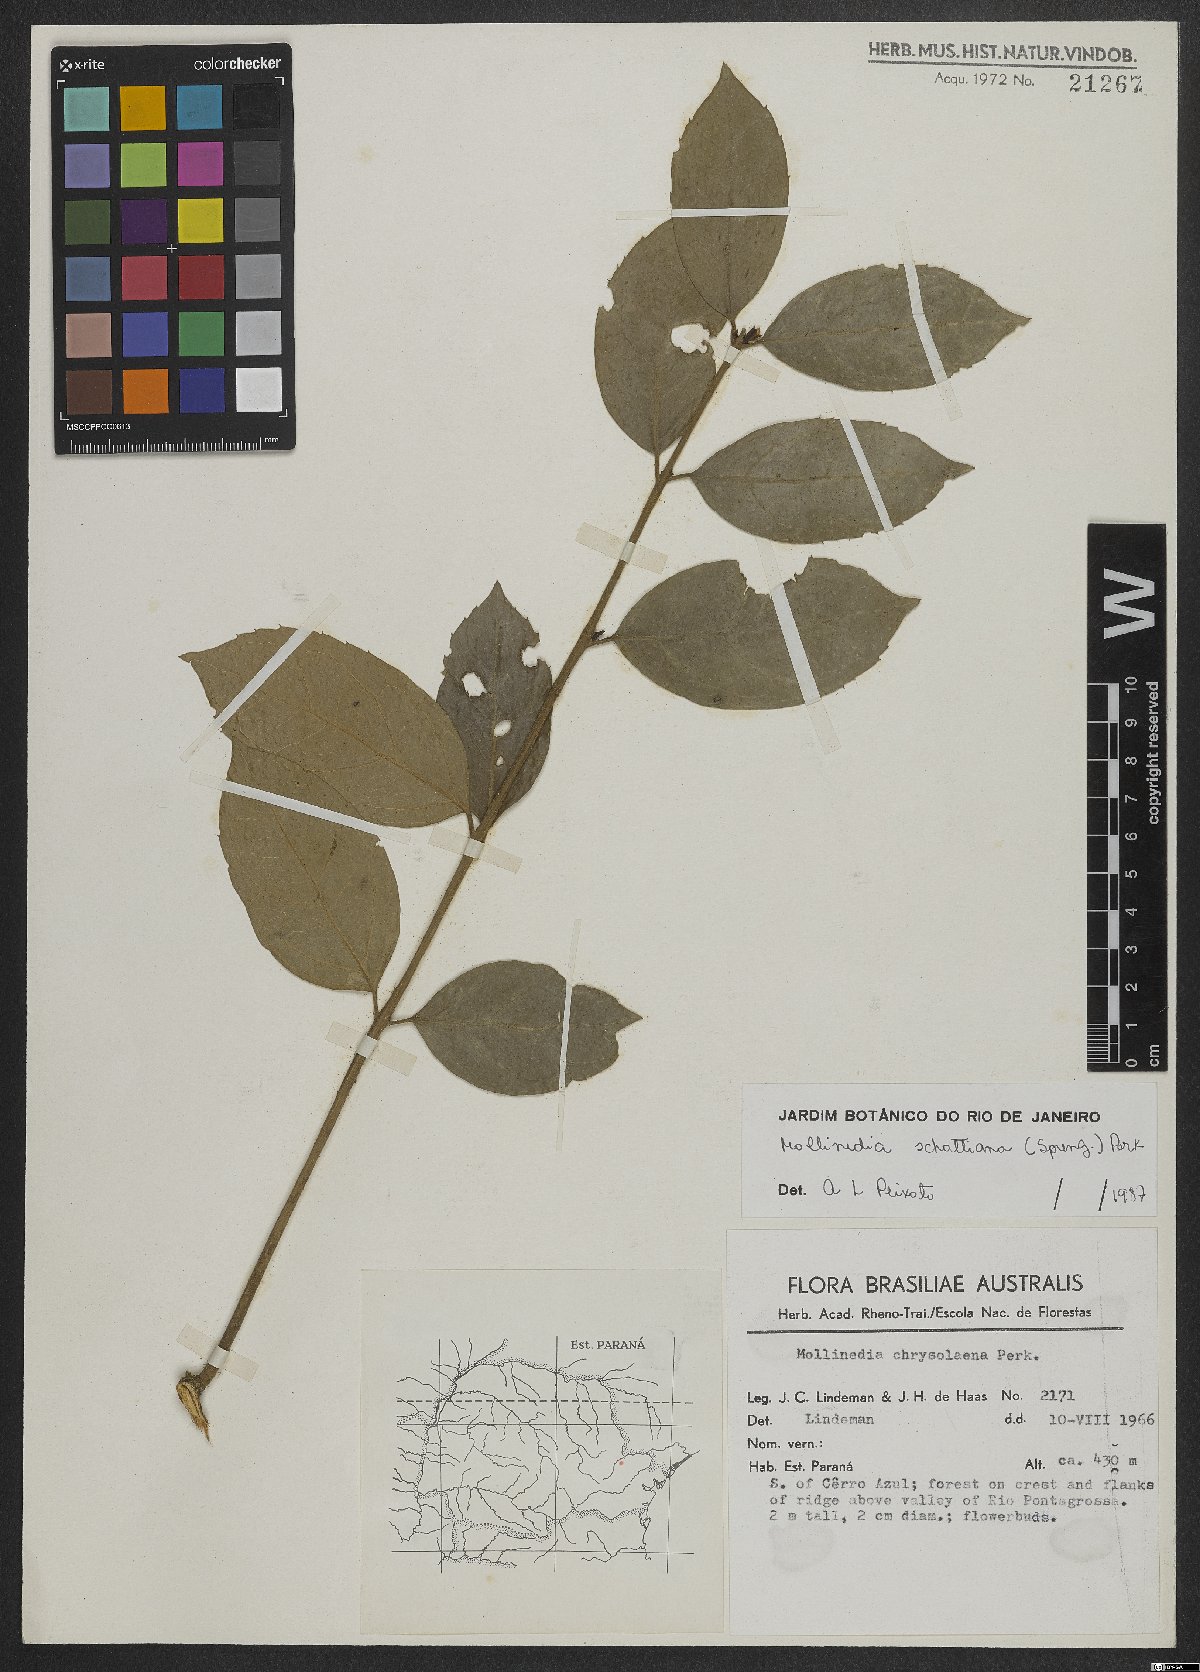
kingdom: Plantae
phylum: Tracheophyta
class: Magnoliopsida
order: Laurales
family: Monimiaceae
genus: Mollinedia
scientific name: Mollinedia umbellata
